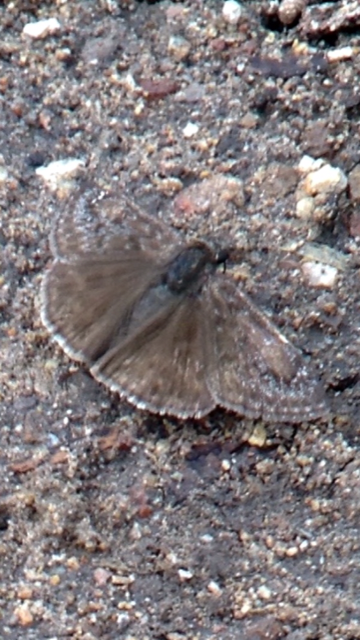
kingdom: Animalia
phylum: Arthropoda
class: Insecta
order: Lepidoptera
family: Hesperiidae
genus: Erynnis
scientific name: Erynnis funeralis
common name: Funereal Duskywing
